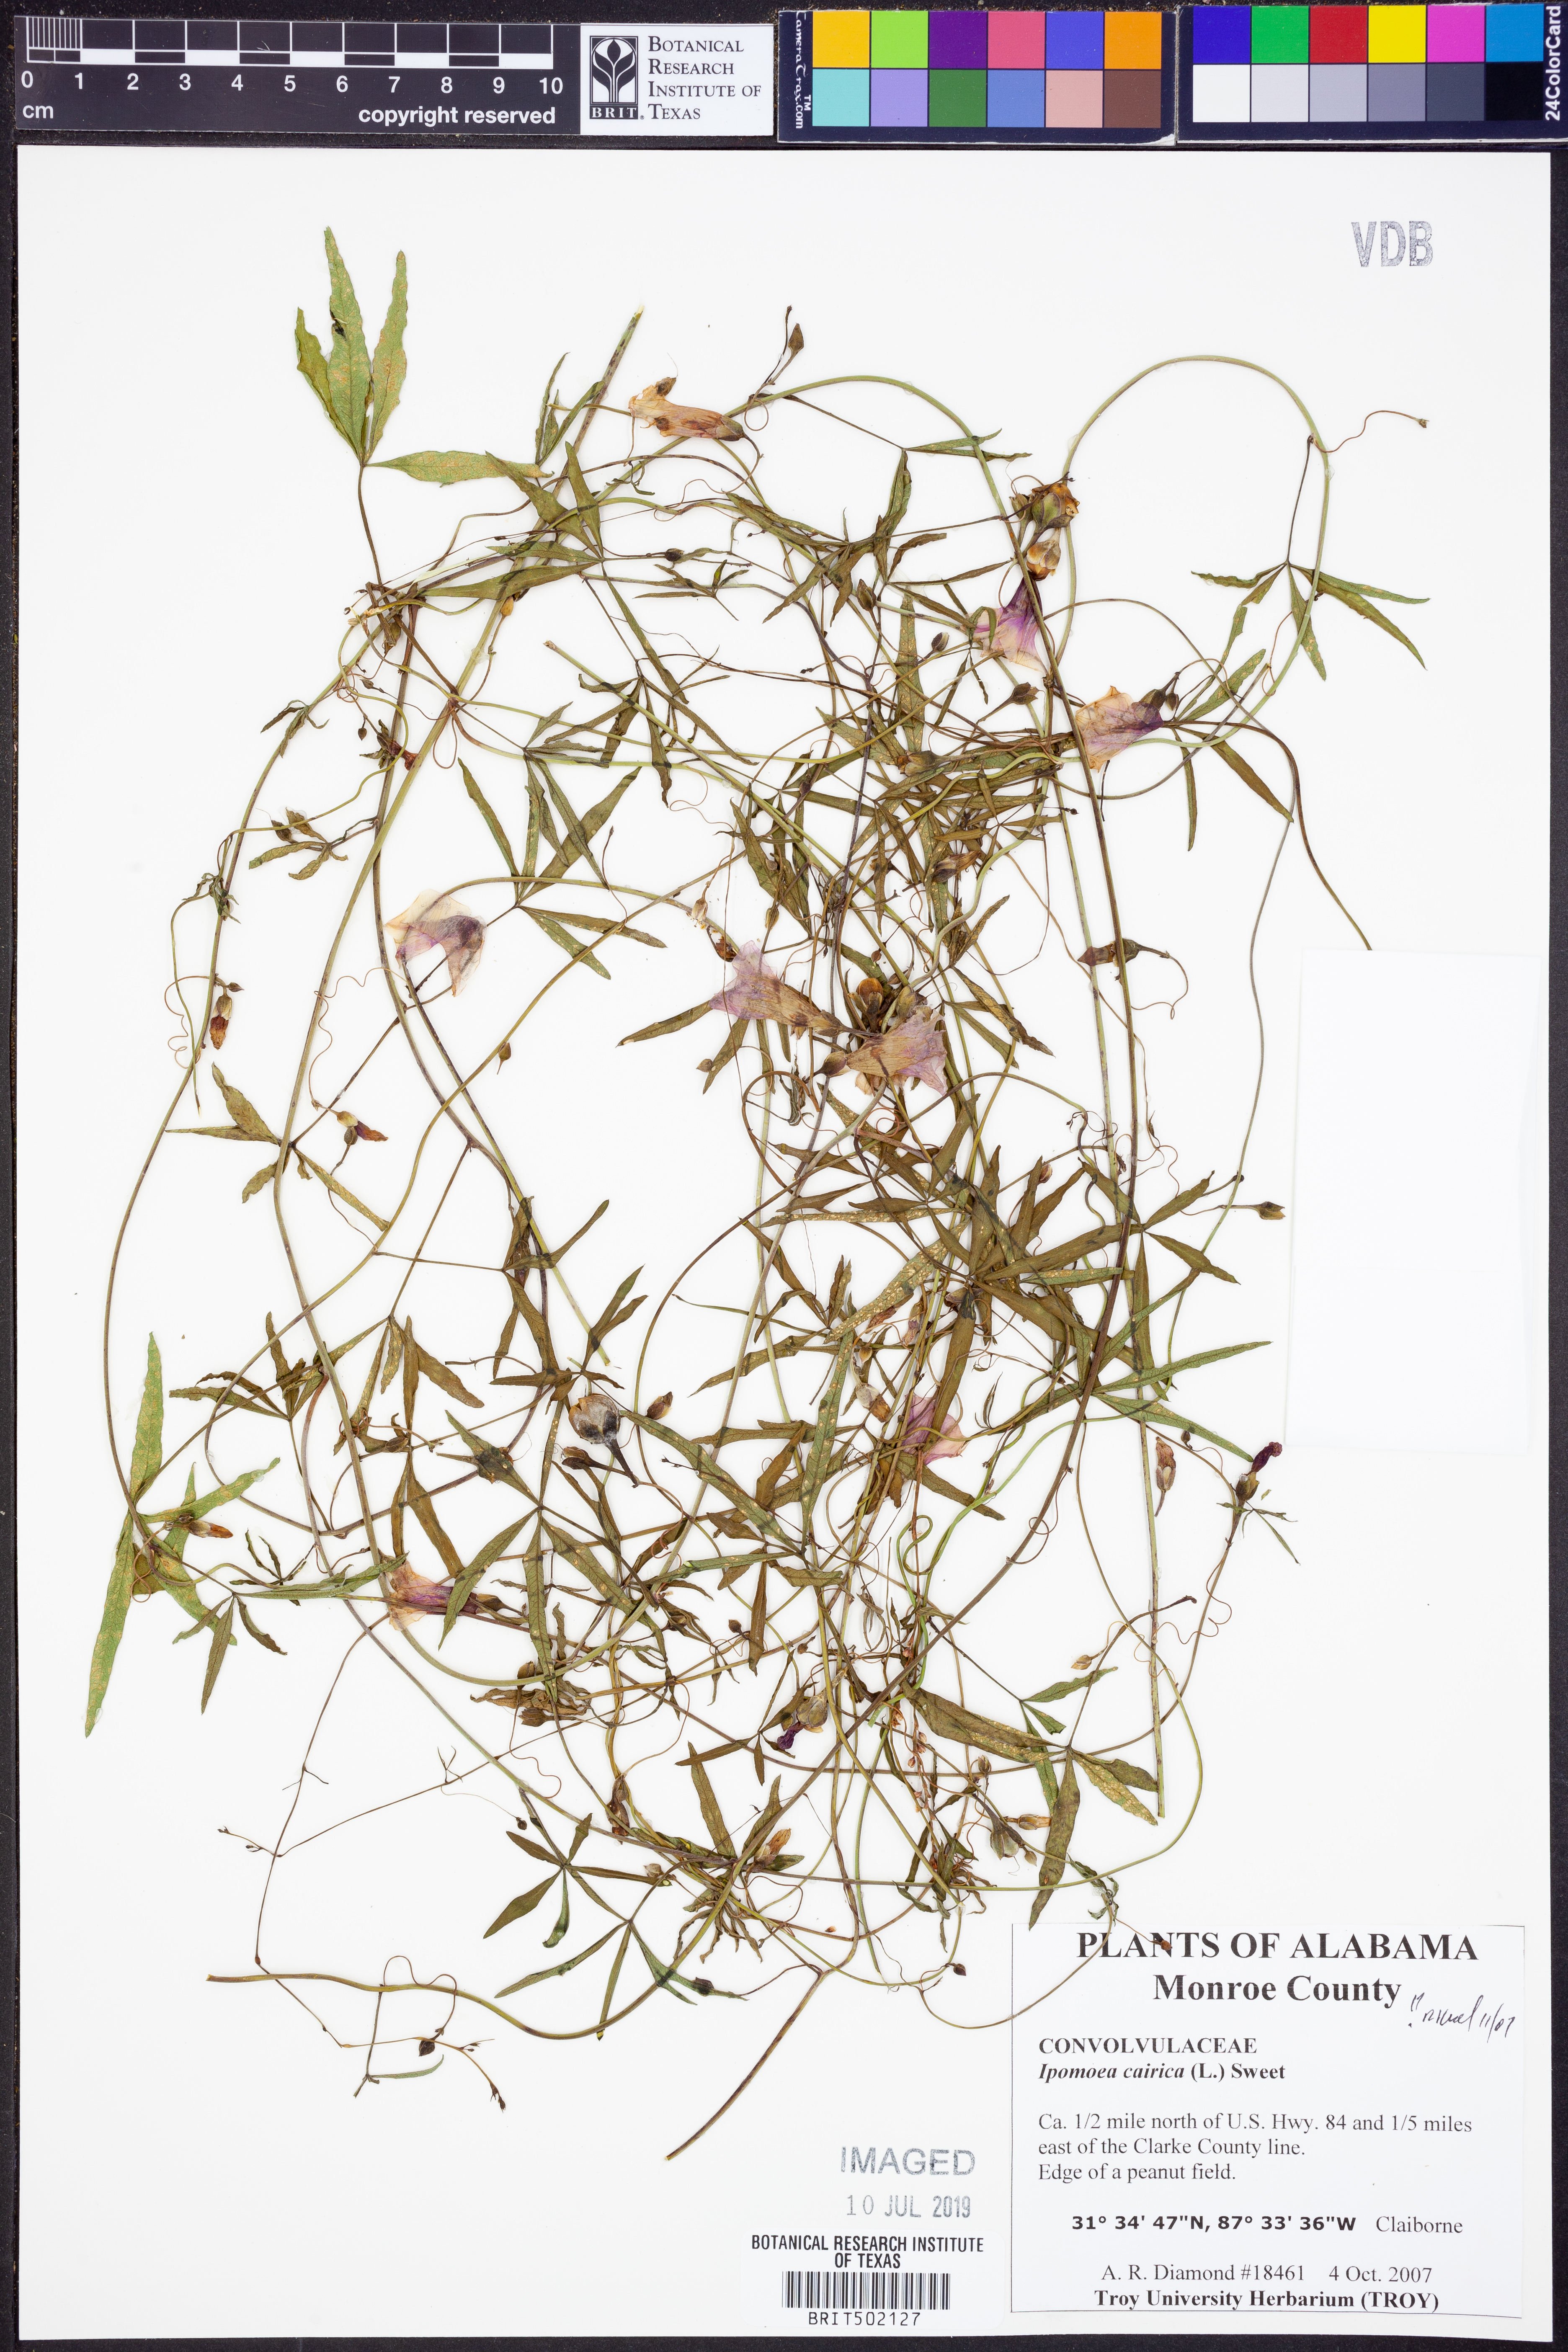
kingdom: Plantae
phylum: Tracheophyta
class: Magnoliopsida
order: Solanales
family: Convolvulaceae
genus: Ipomoea
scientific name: Ipomoea cairica
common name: Mile a minute vine
